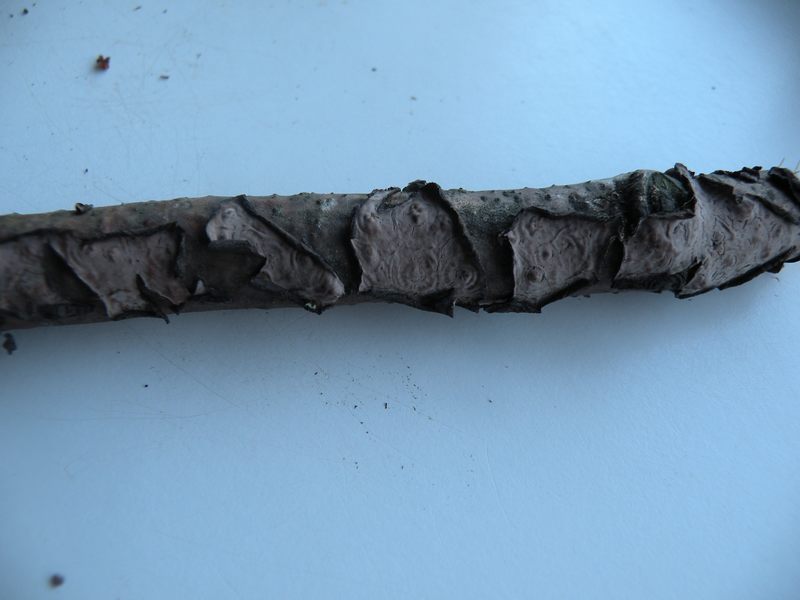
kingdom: Fungi
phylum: Basidiomycota
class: Agaricomycetes
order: Russulales
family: Peniophoraceae
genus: Peniophora
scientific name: Peniophora quercina
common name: ege-voksskind
